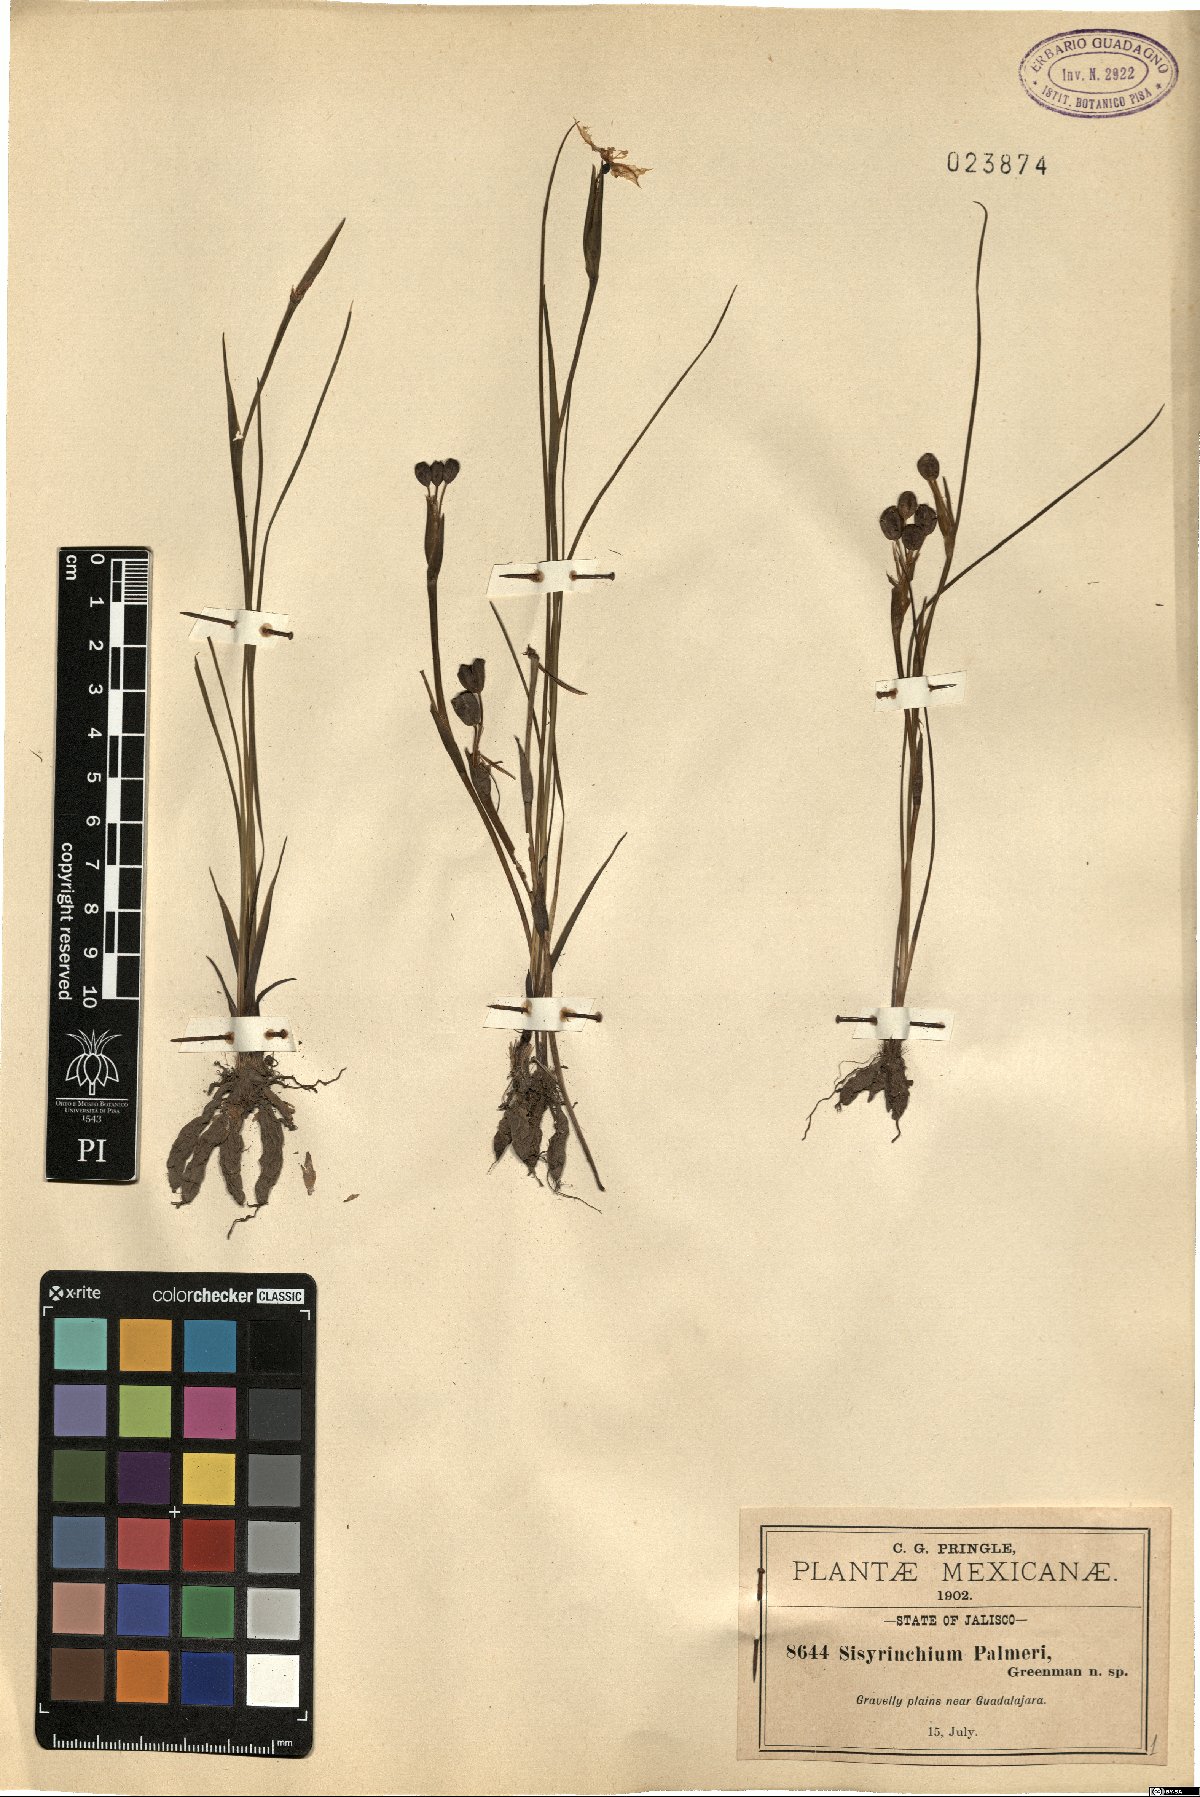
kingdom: Plantae
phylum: Tracheophyta
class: Liliopsida
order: Asparagales
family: Iridaceae
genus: Sisyrinchium
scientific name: Sisyrinchium tolucense
